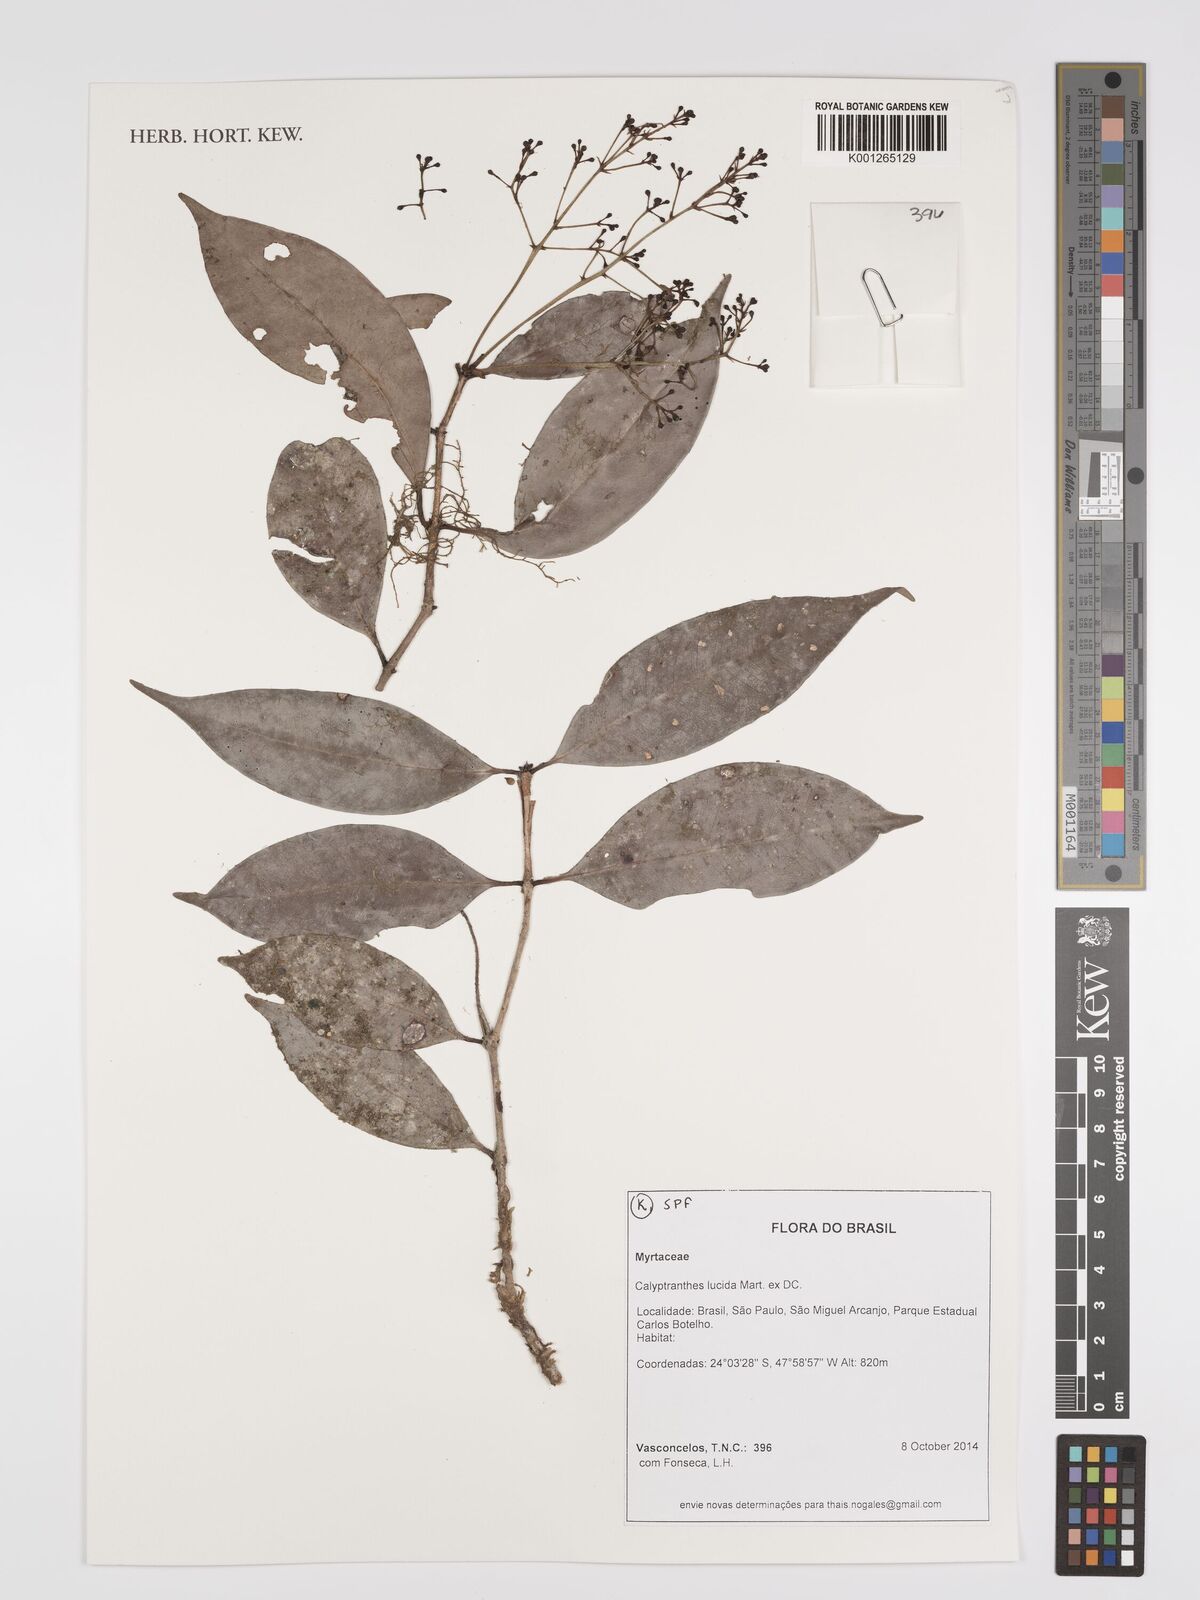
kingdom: Plantae
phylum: Tracheophyta
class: Magnoliopsida
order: Myrtales
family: Myrtaceae
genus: Myrcia
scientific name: Myrcia neolucida
